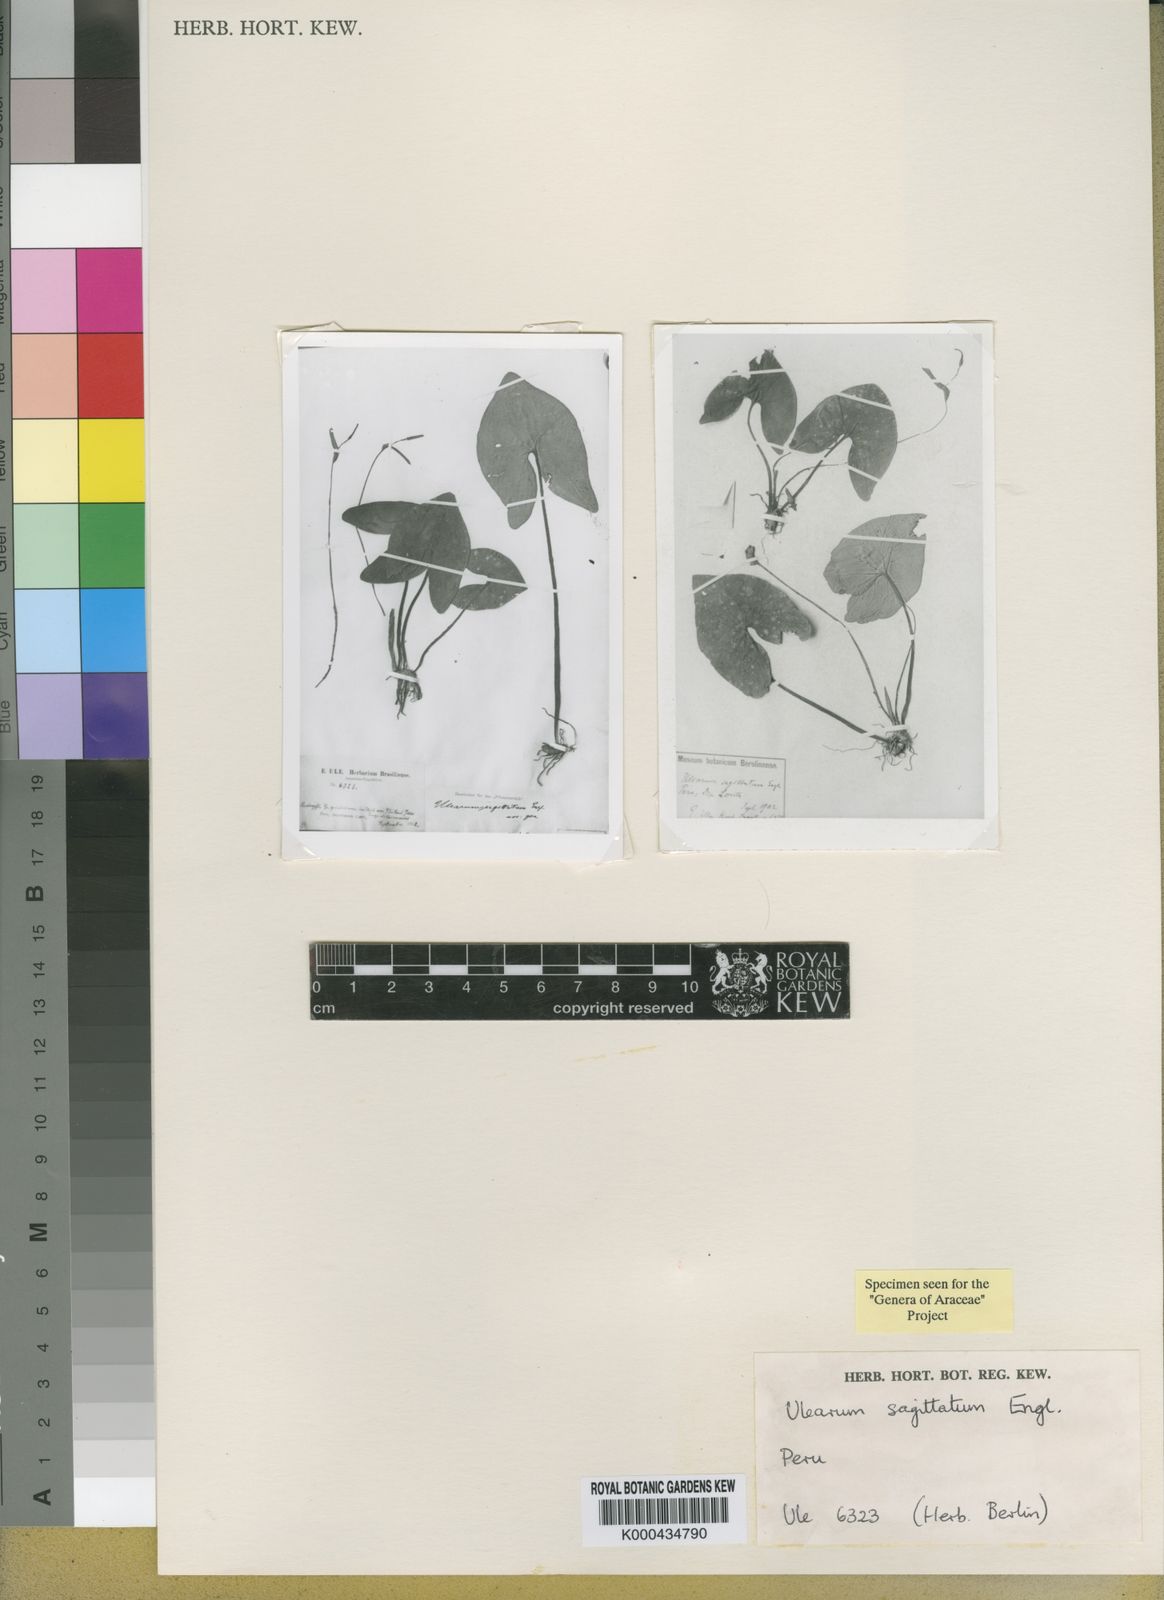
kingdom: Plantae
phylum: Tracheophyta
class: Liliopsida
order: Alismatales
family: Araceae
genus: Ulearum
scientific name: Ulearum sagittatum
